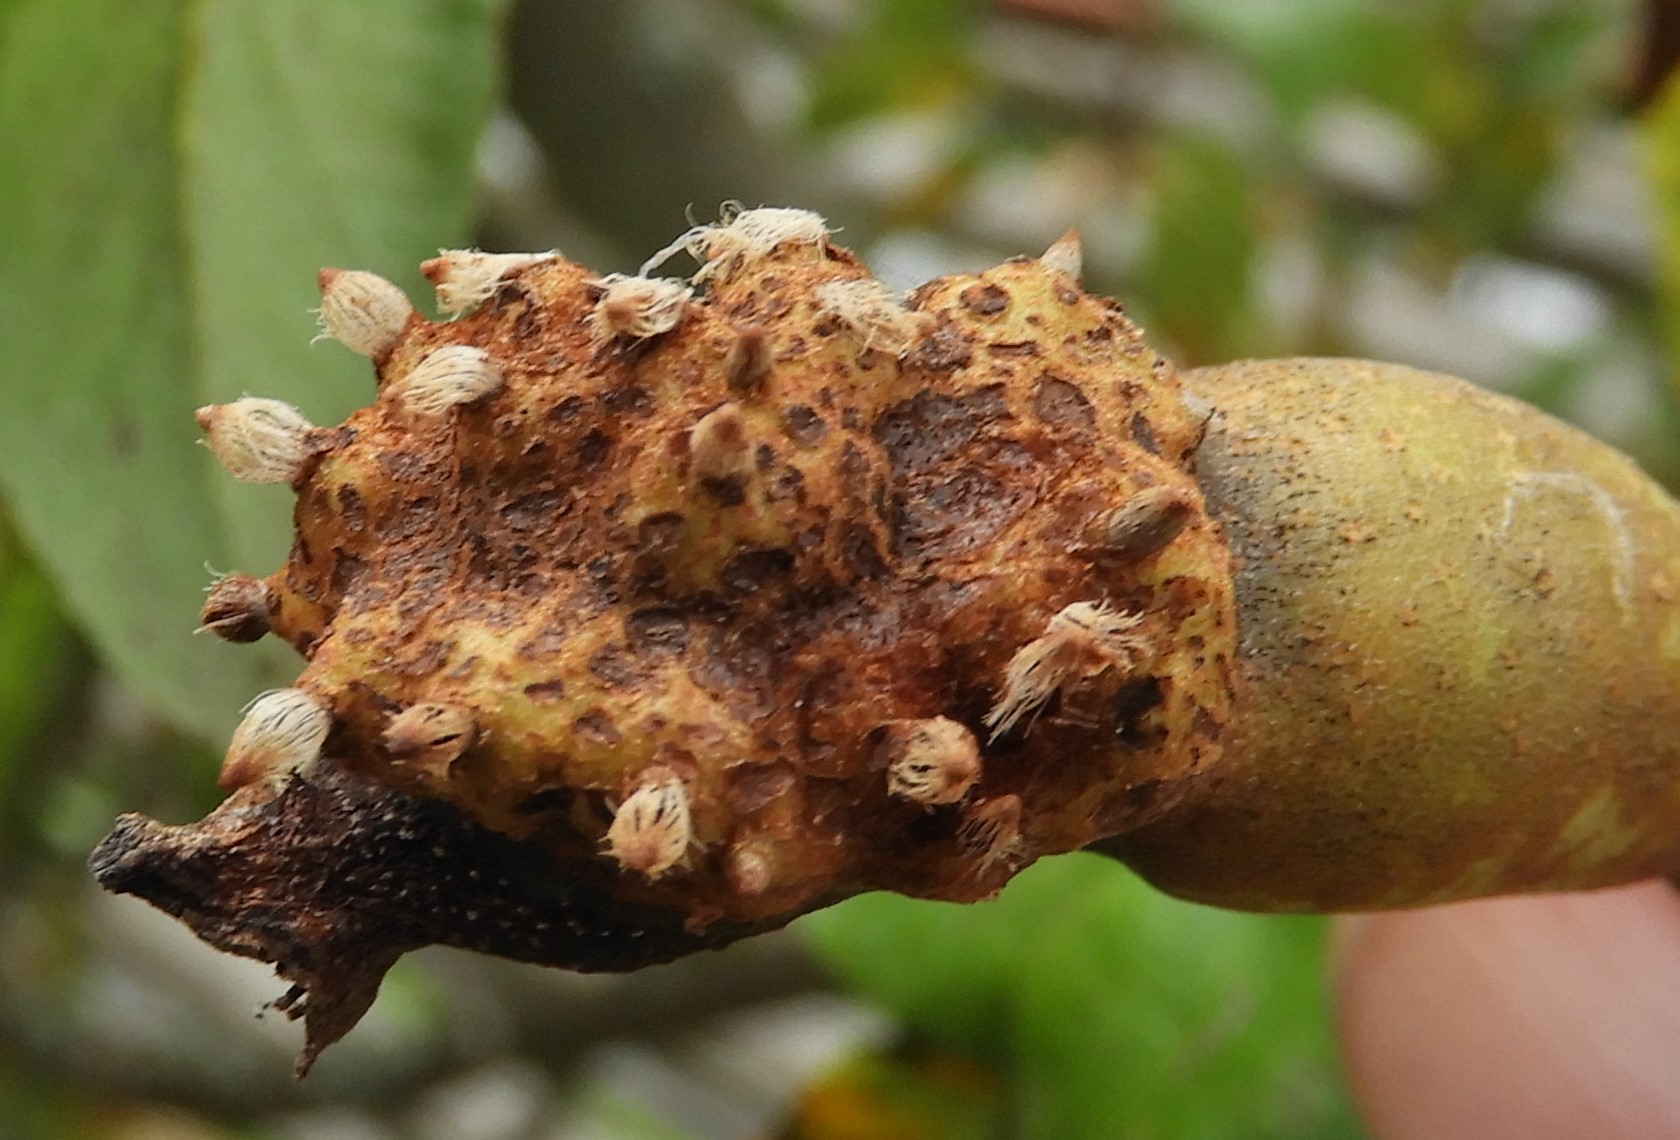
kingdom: Fungi
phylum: Basidiomycota
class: Pucciniomycetes
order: Pucciniales
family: Gymnosporangiaceae
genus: Gymnosporangium
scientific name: Gymnosporangium sabinae
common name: pæregitter-bævrerust
